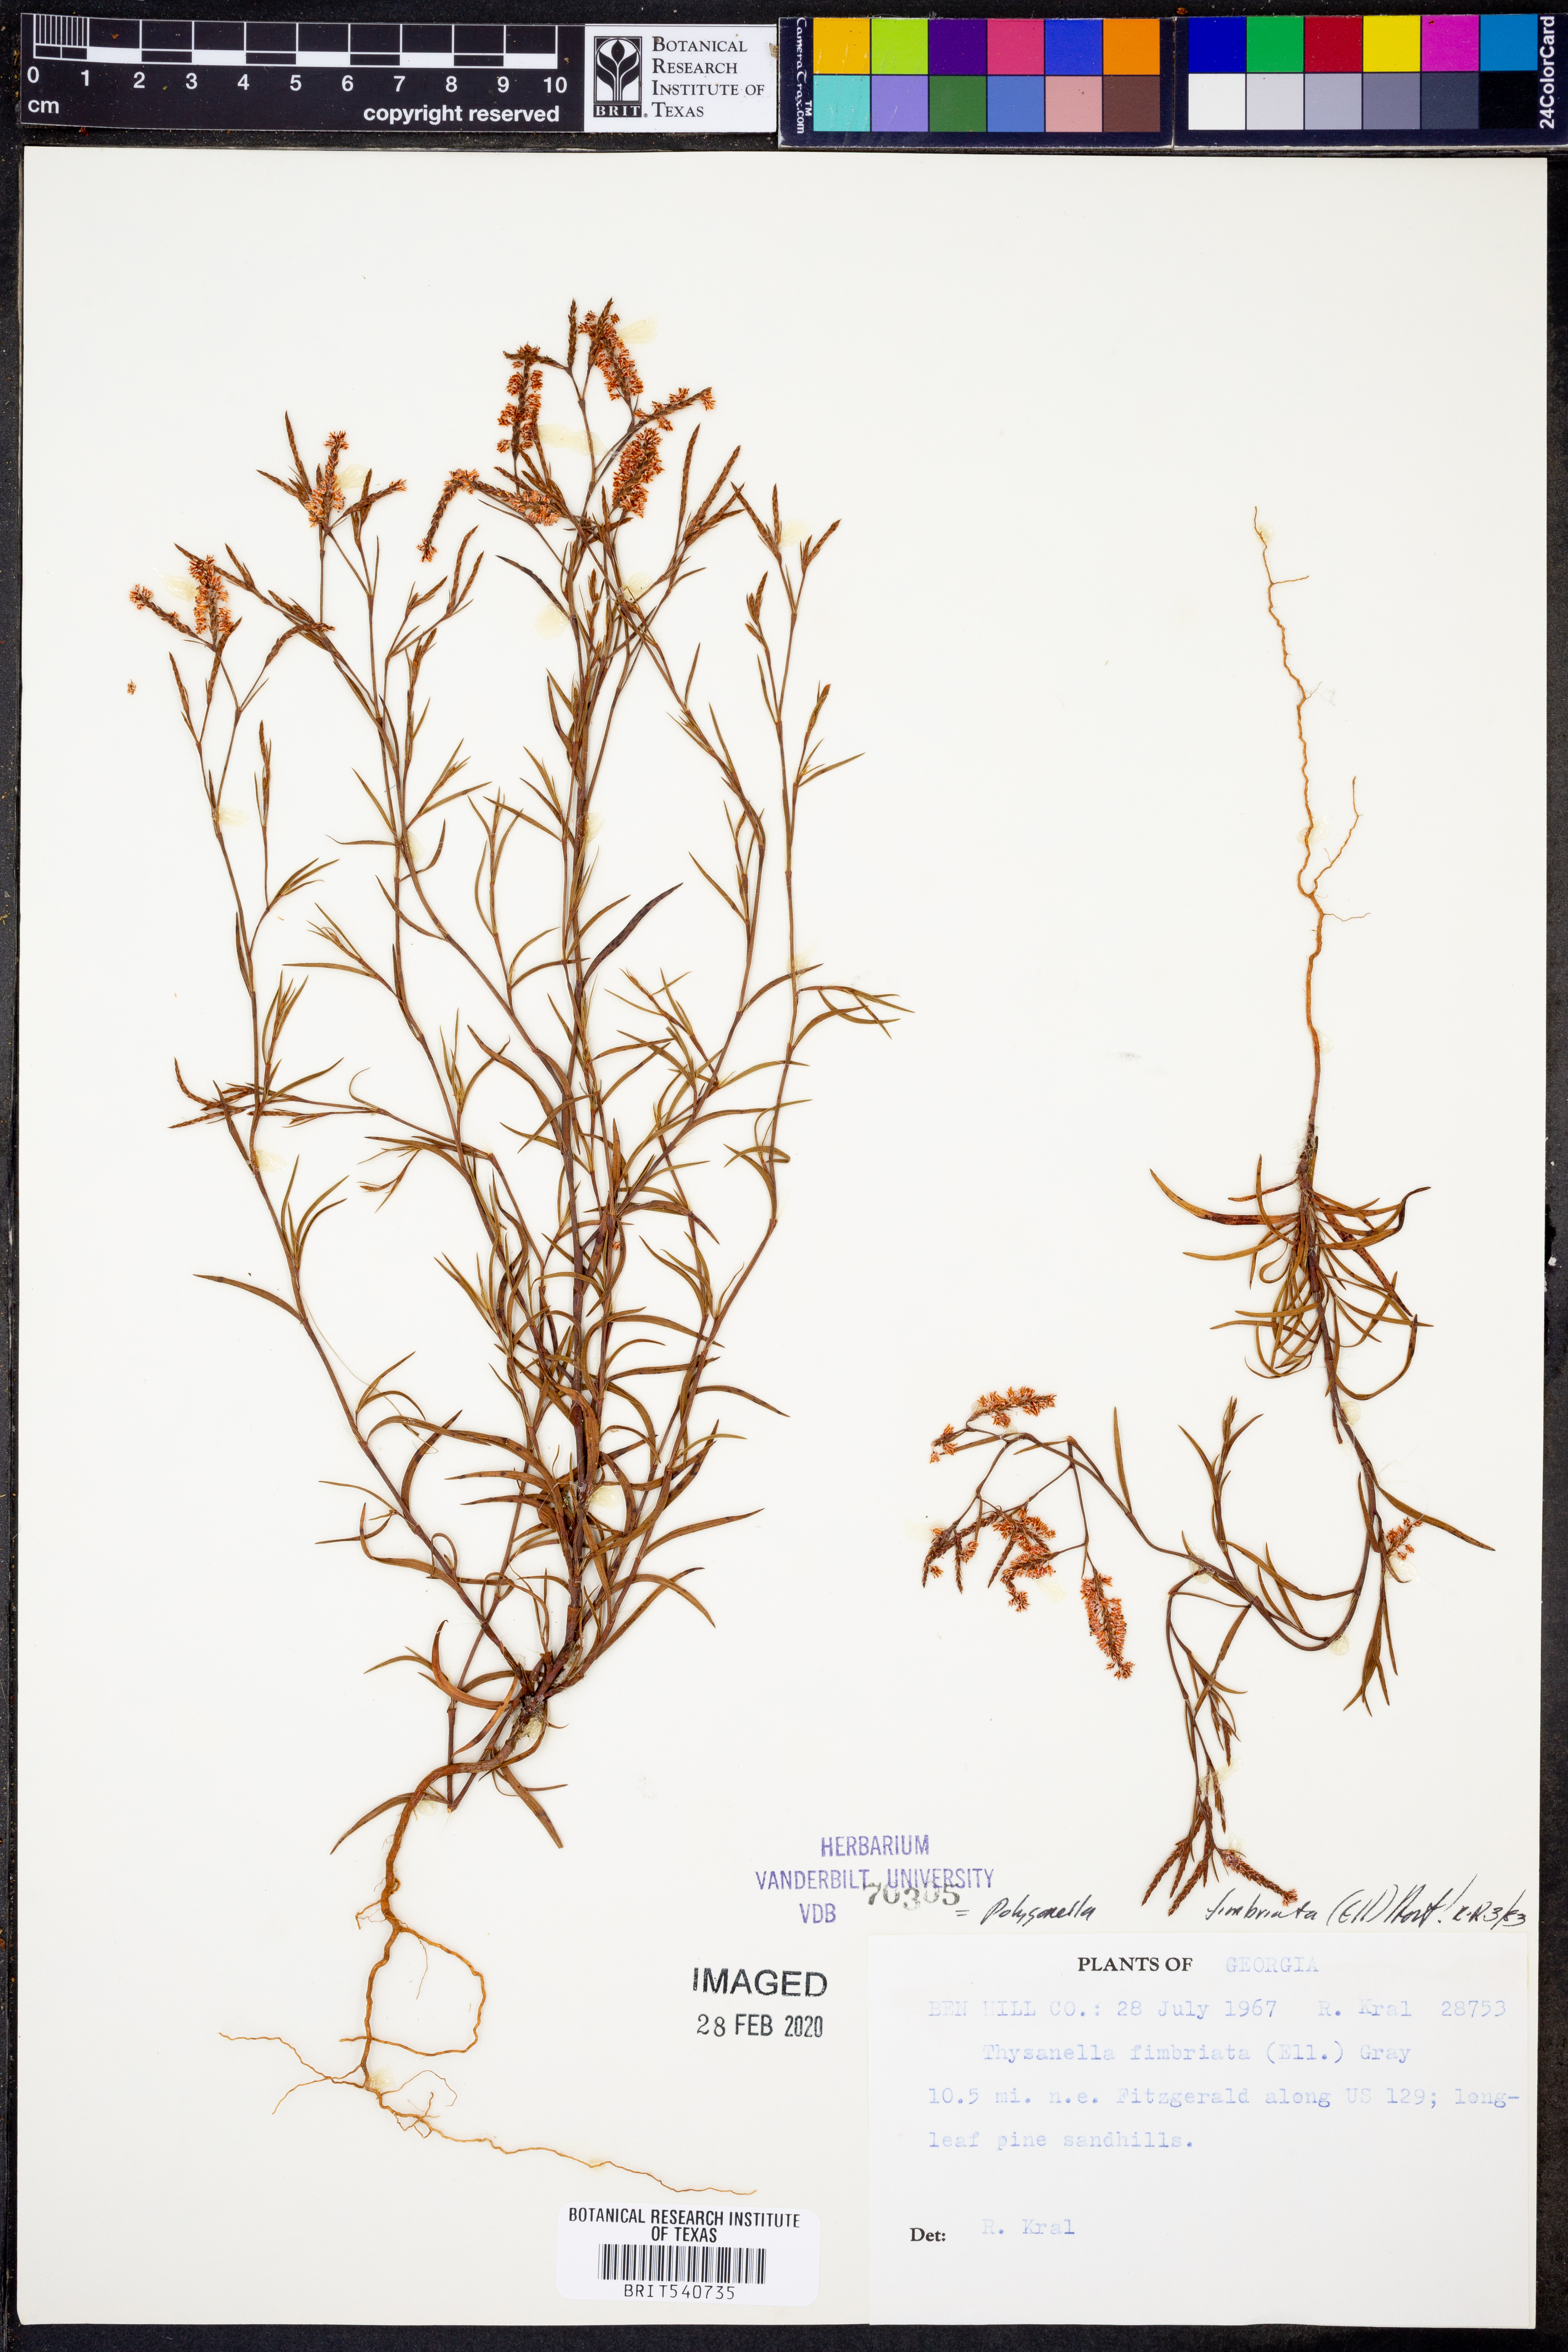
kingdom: Plantae
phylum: Tracheophyta
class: Magnoliopsida
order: Caryophyllales
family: Polygonaceae
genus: Polygonella
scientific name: Polygonella fimbriata
